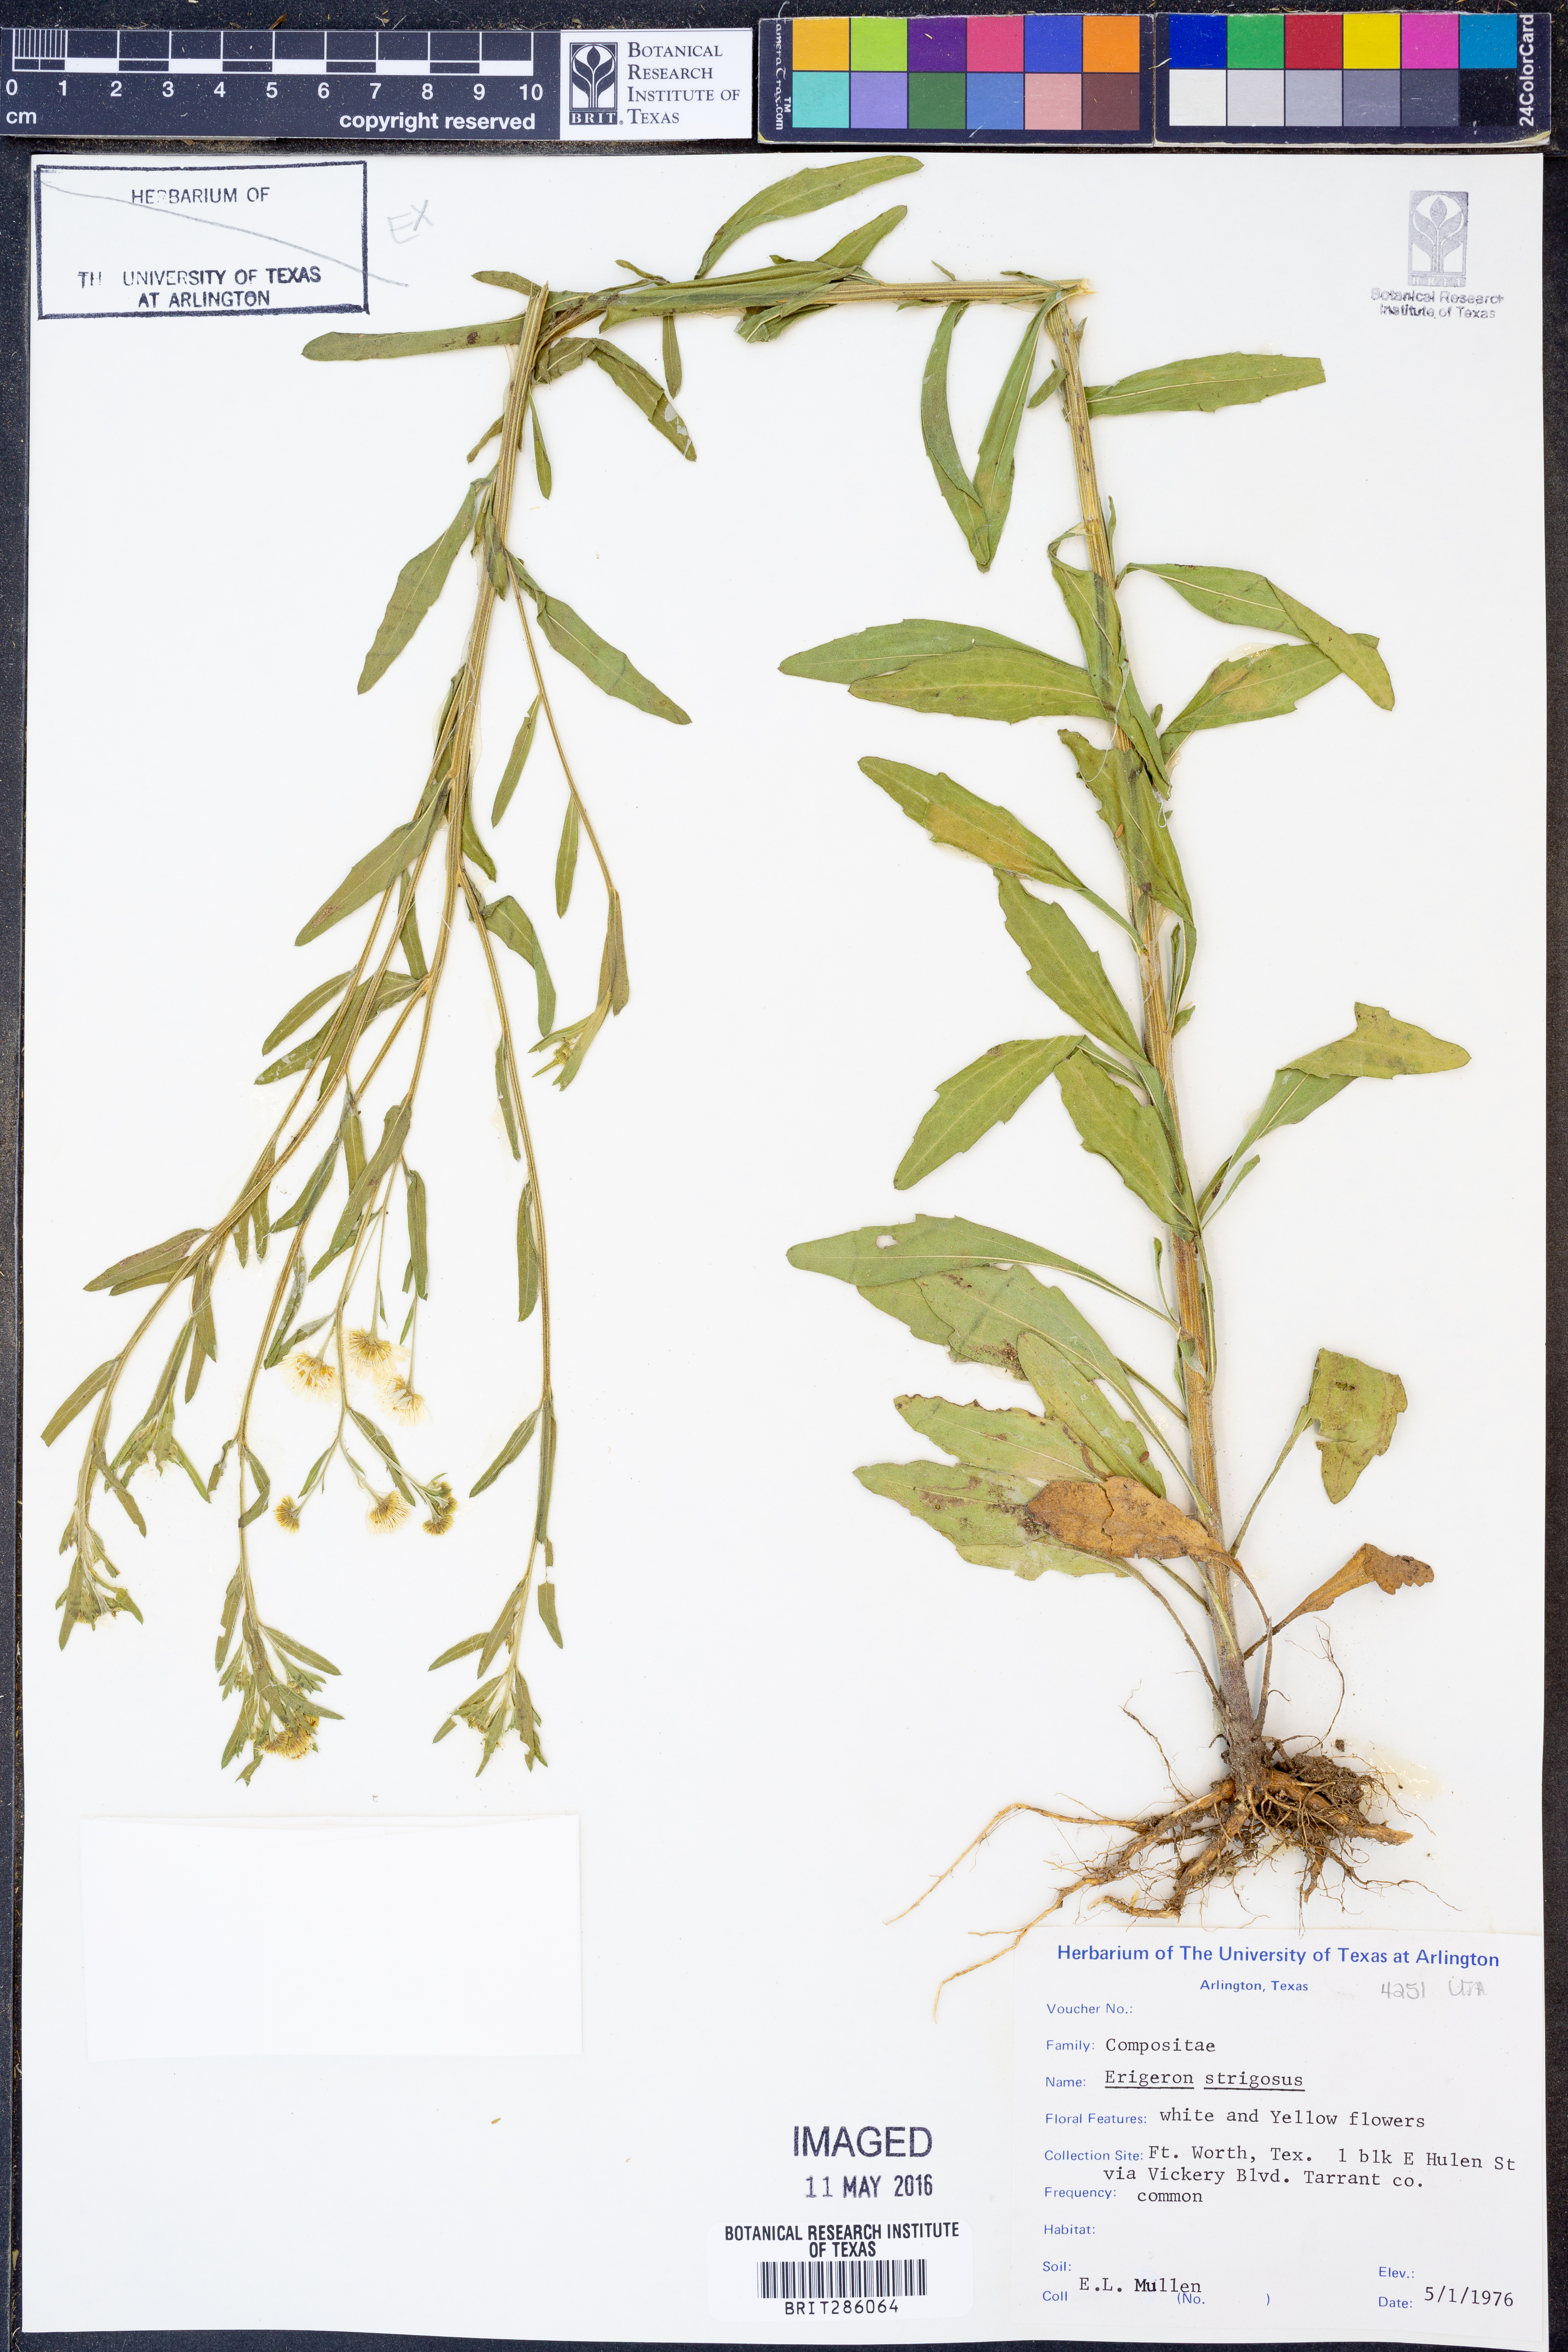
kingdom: Plantae
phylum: Tracheophyta
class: Magnoliopsida
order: Asterales
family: Asteraceae
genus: Erigeron
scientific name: Erigeron strigosus
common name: Common eastern fleabane
